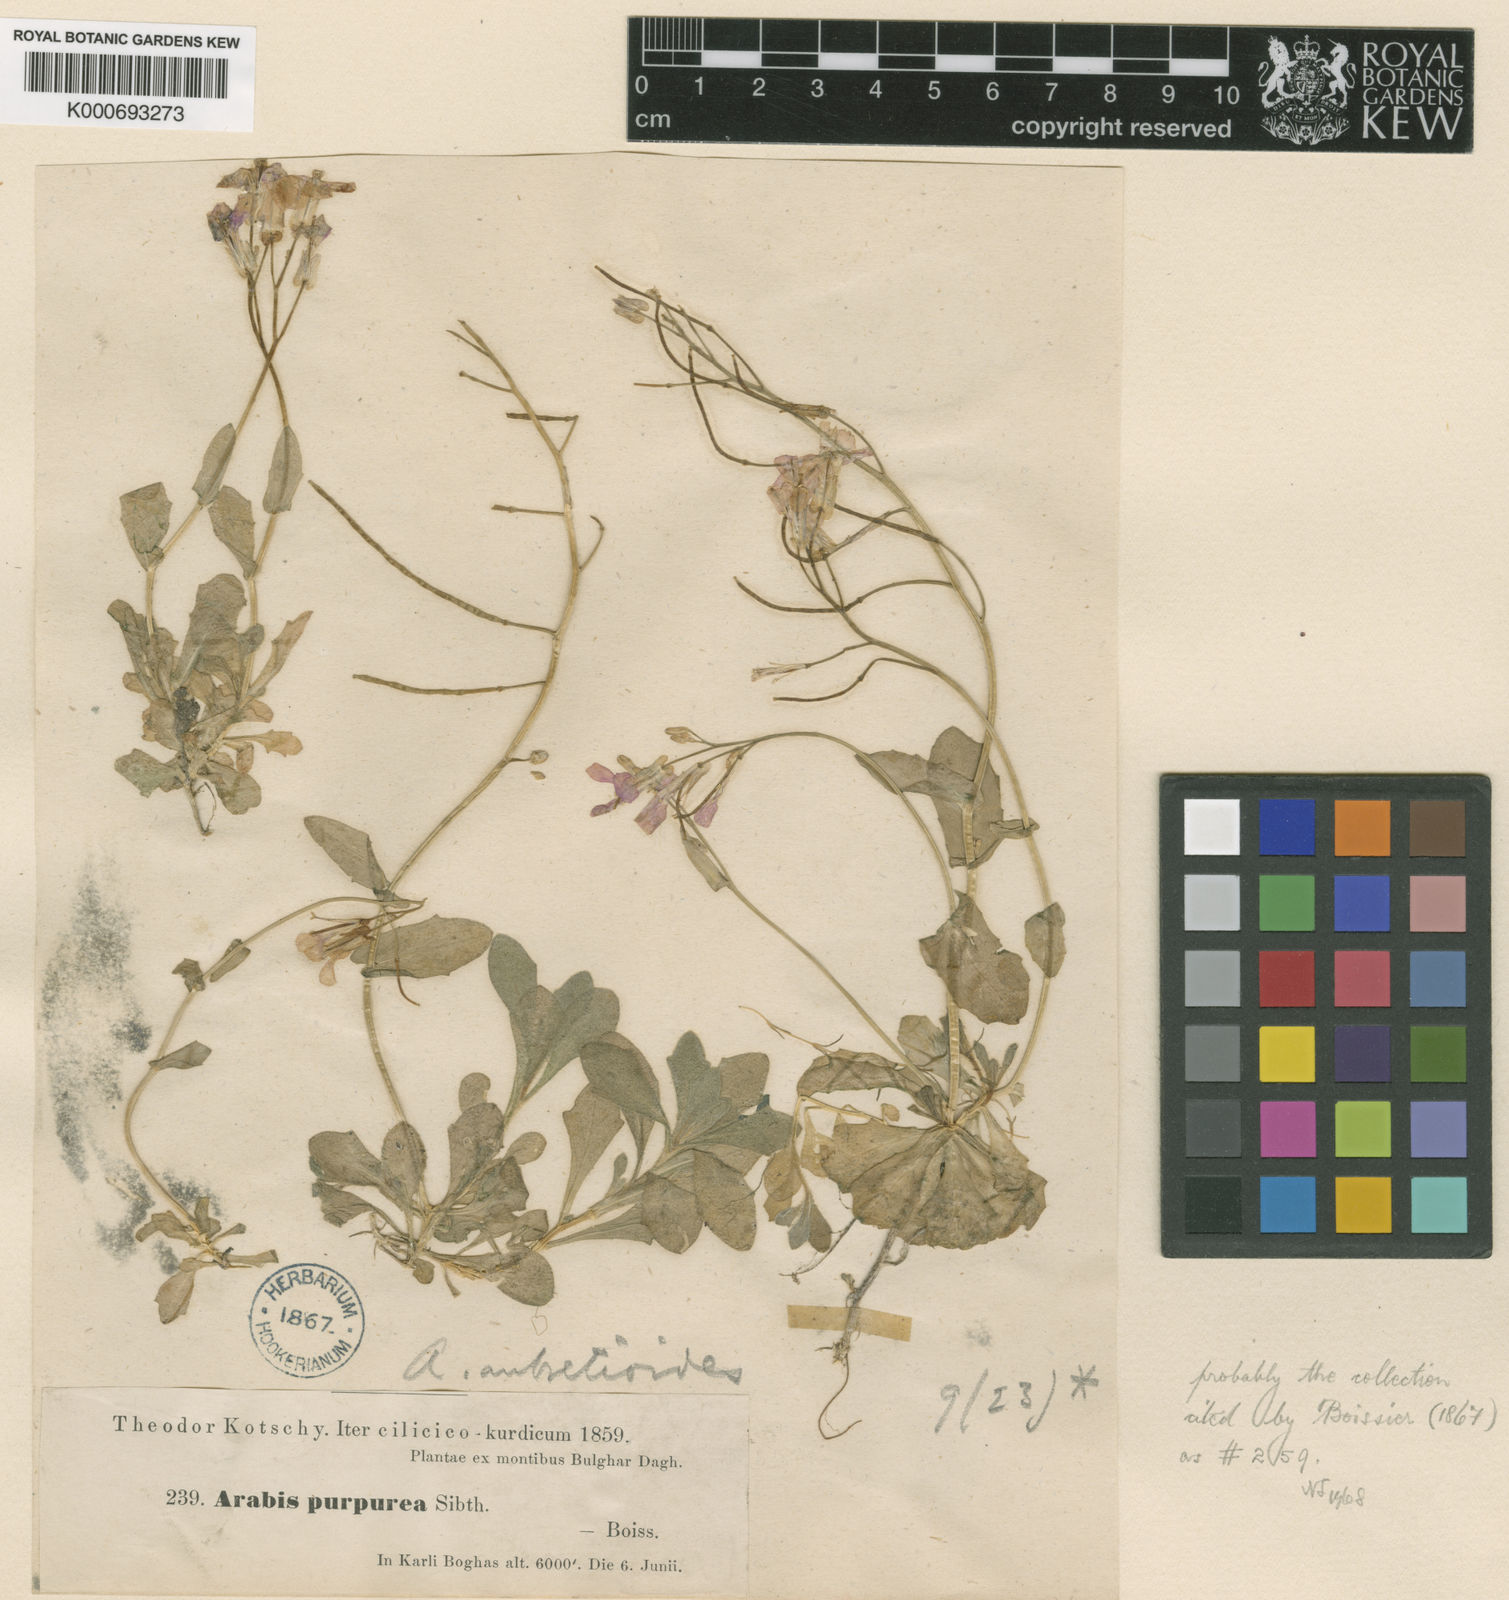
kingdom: Plantae
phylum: Tracheophyta
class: Magnoliopsida
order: Brassicales
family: Brassicaceae
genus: Arabis
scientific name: Arabis aubrietioides
